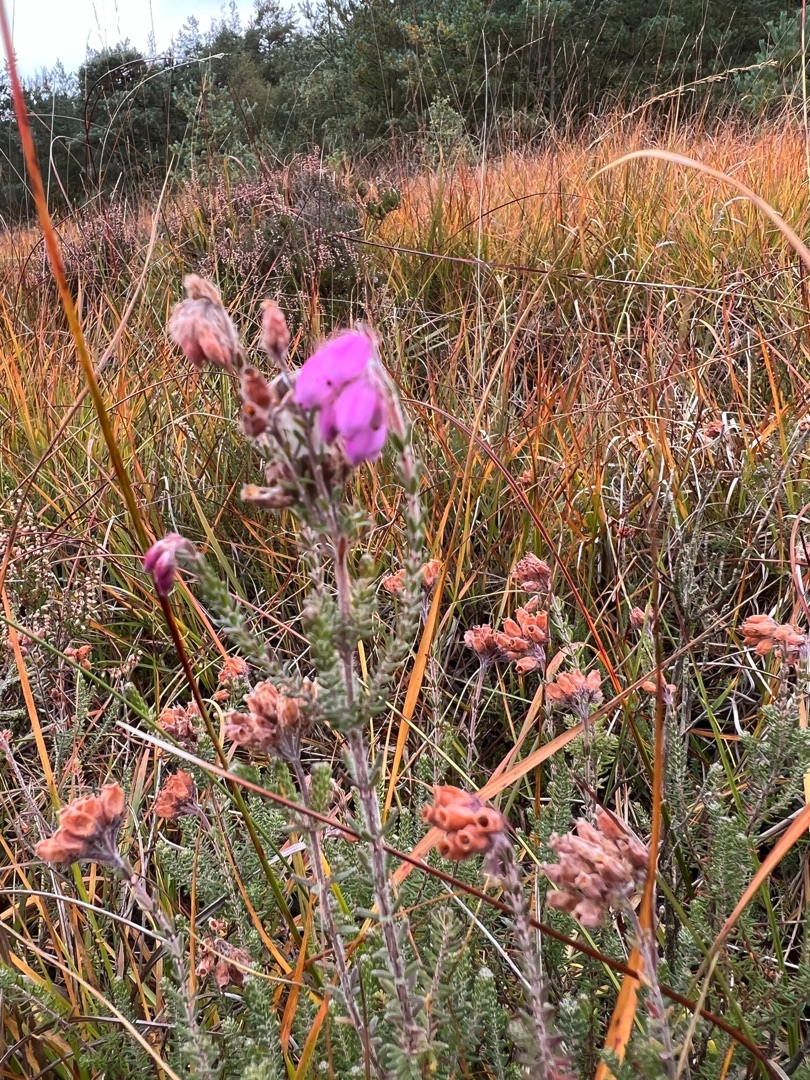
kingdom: Plantae
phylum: Tracheophyta
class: Magnoliopsida
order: Ericales
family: Ericaceae
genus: Erica
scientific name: Erica tetralix
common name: Klokkelyng
